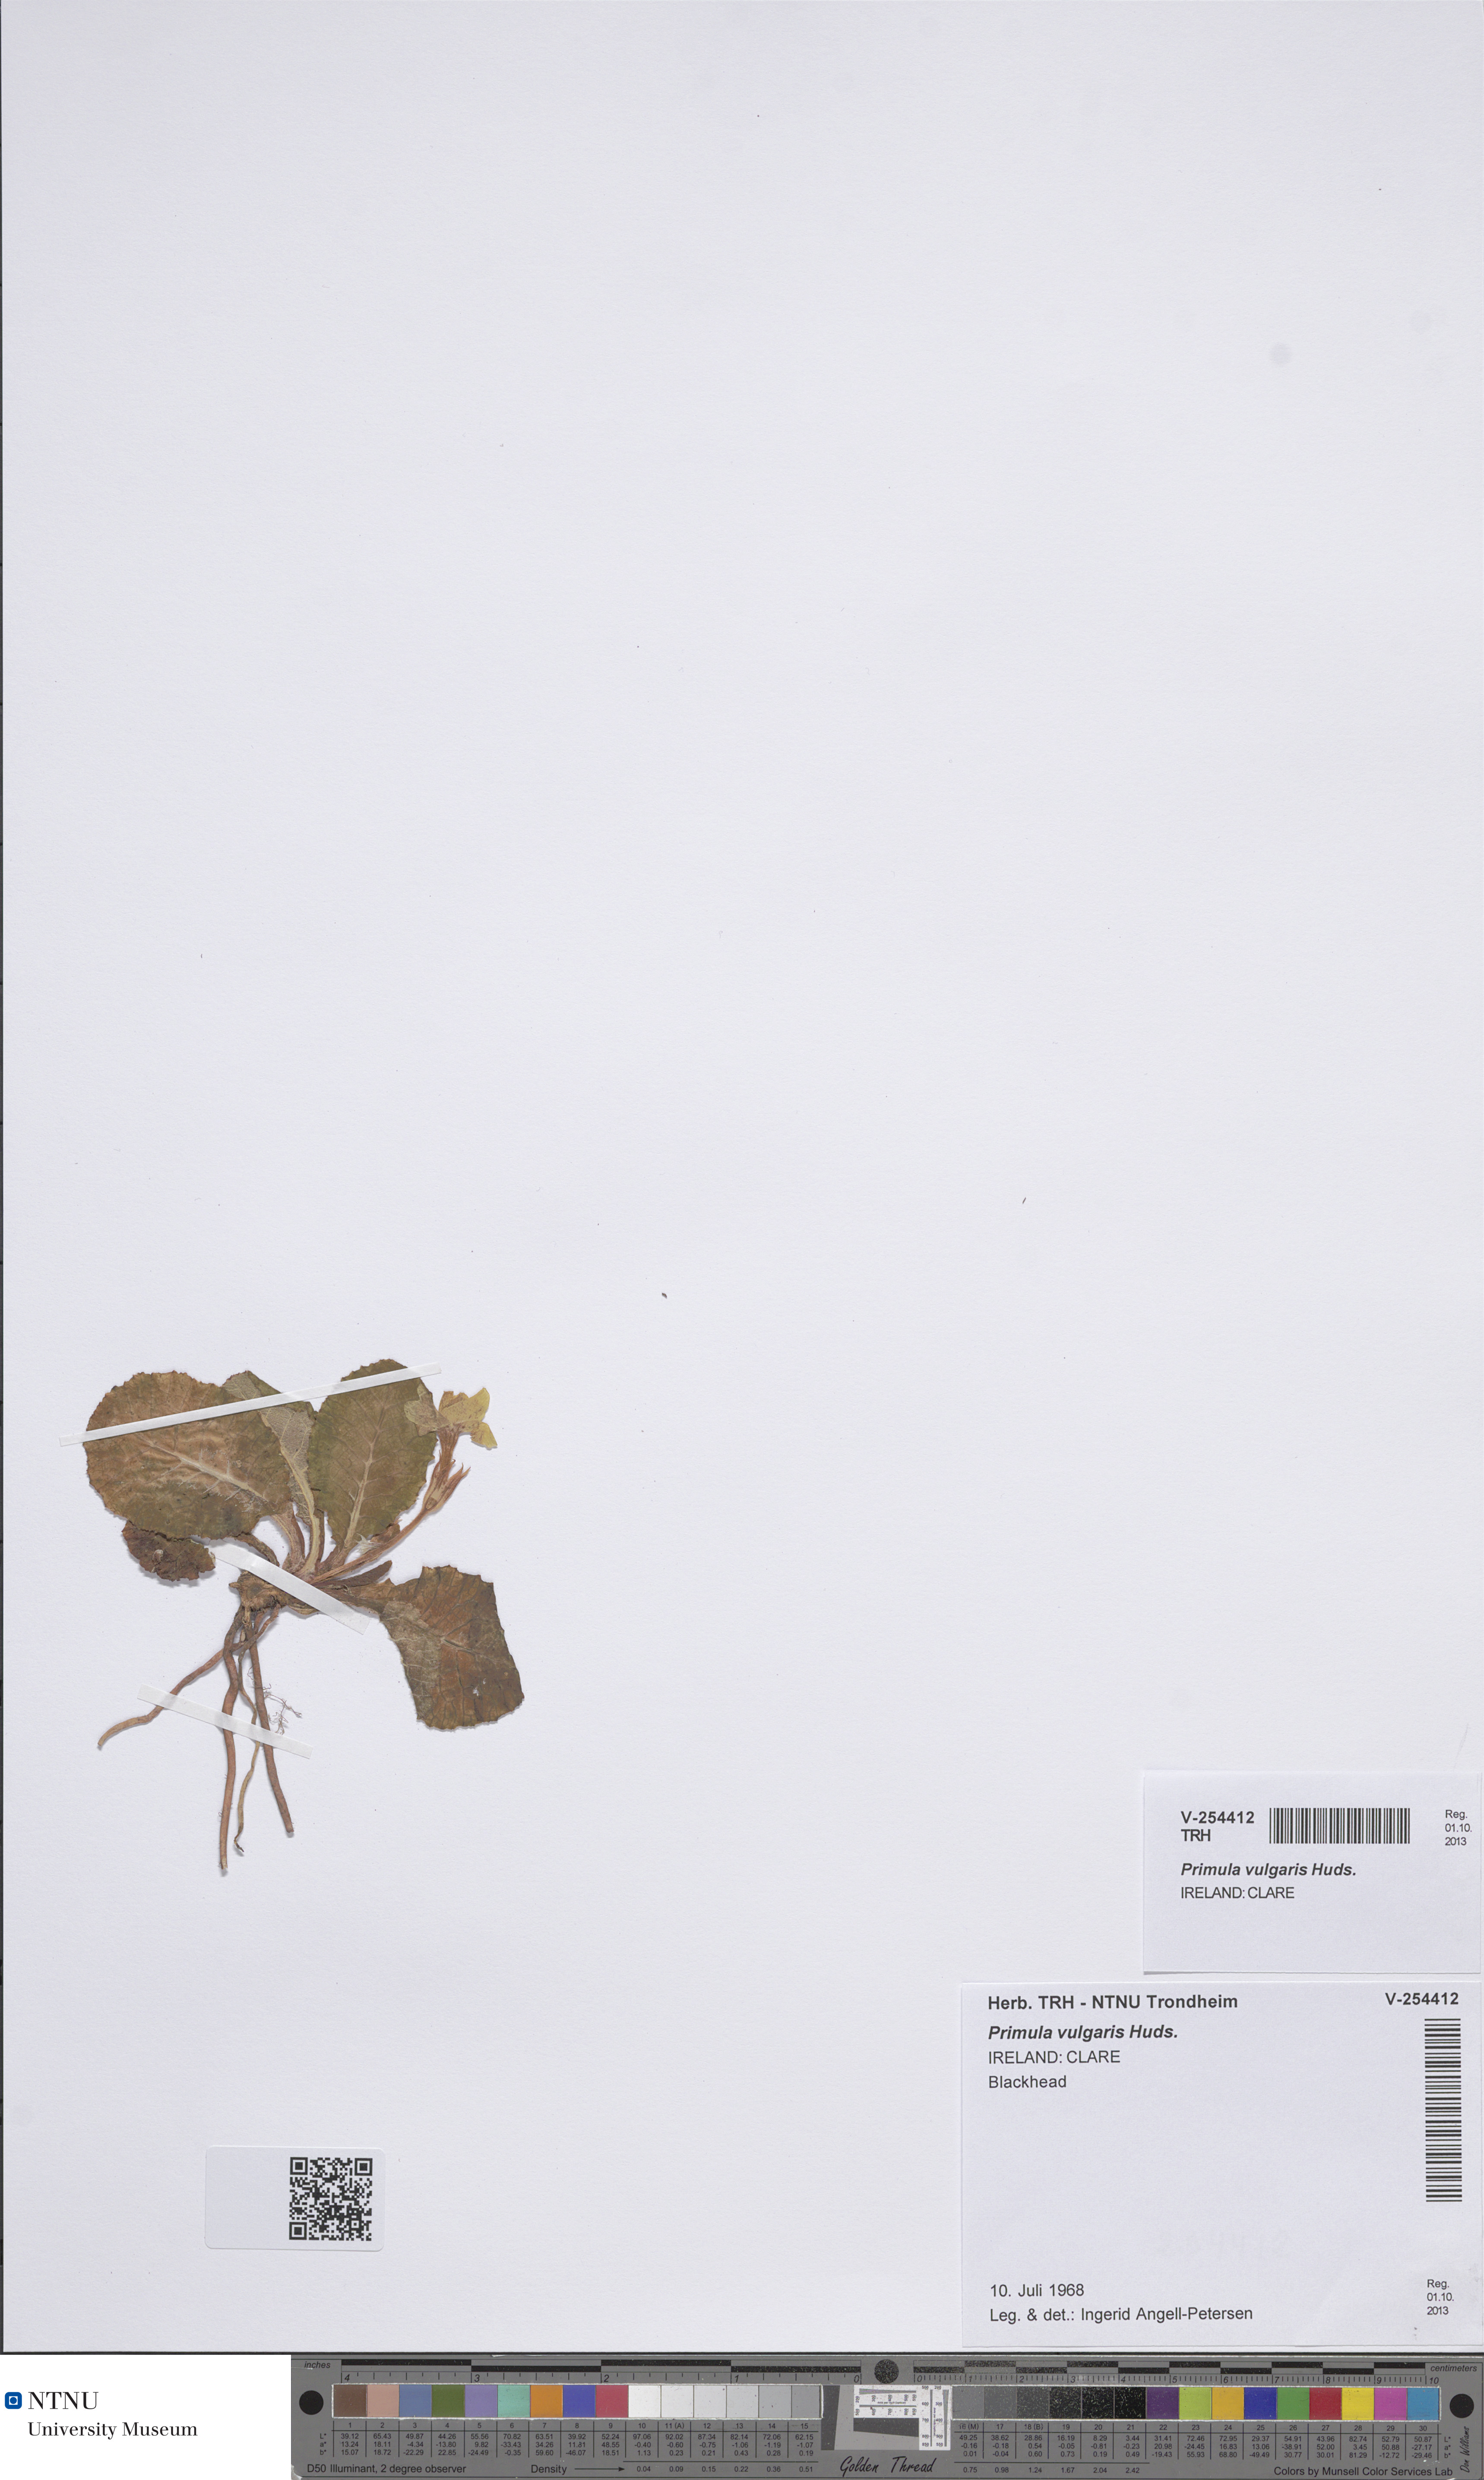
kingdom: Plantae
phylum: Tracheophyta
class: Magnoliopsida
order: Ericales
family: Primulaceae
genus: Primula
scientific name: Primula vulgaris
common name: Primrose
